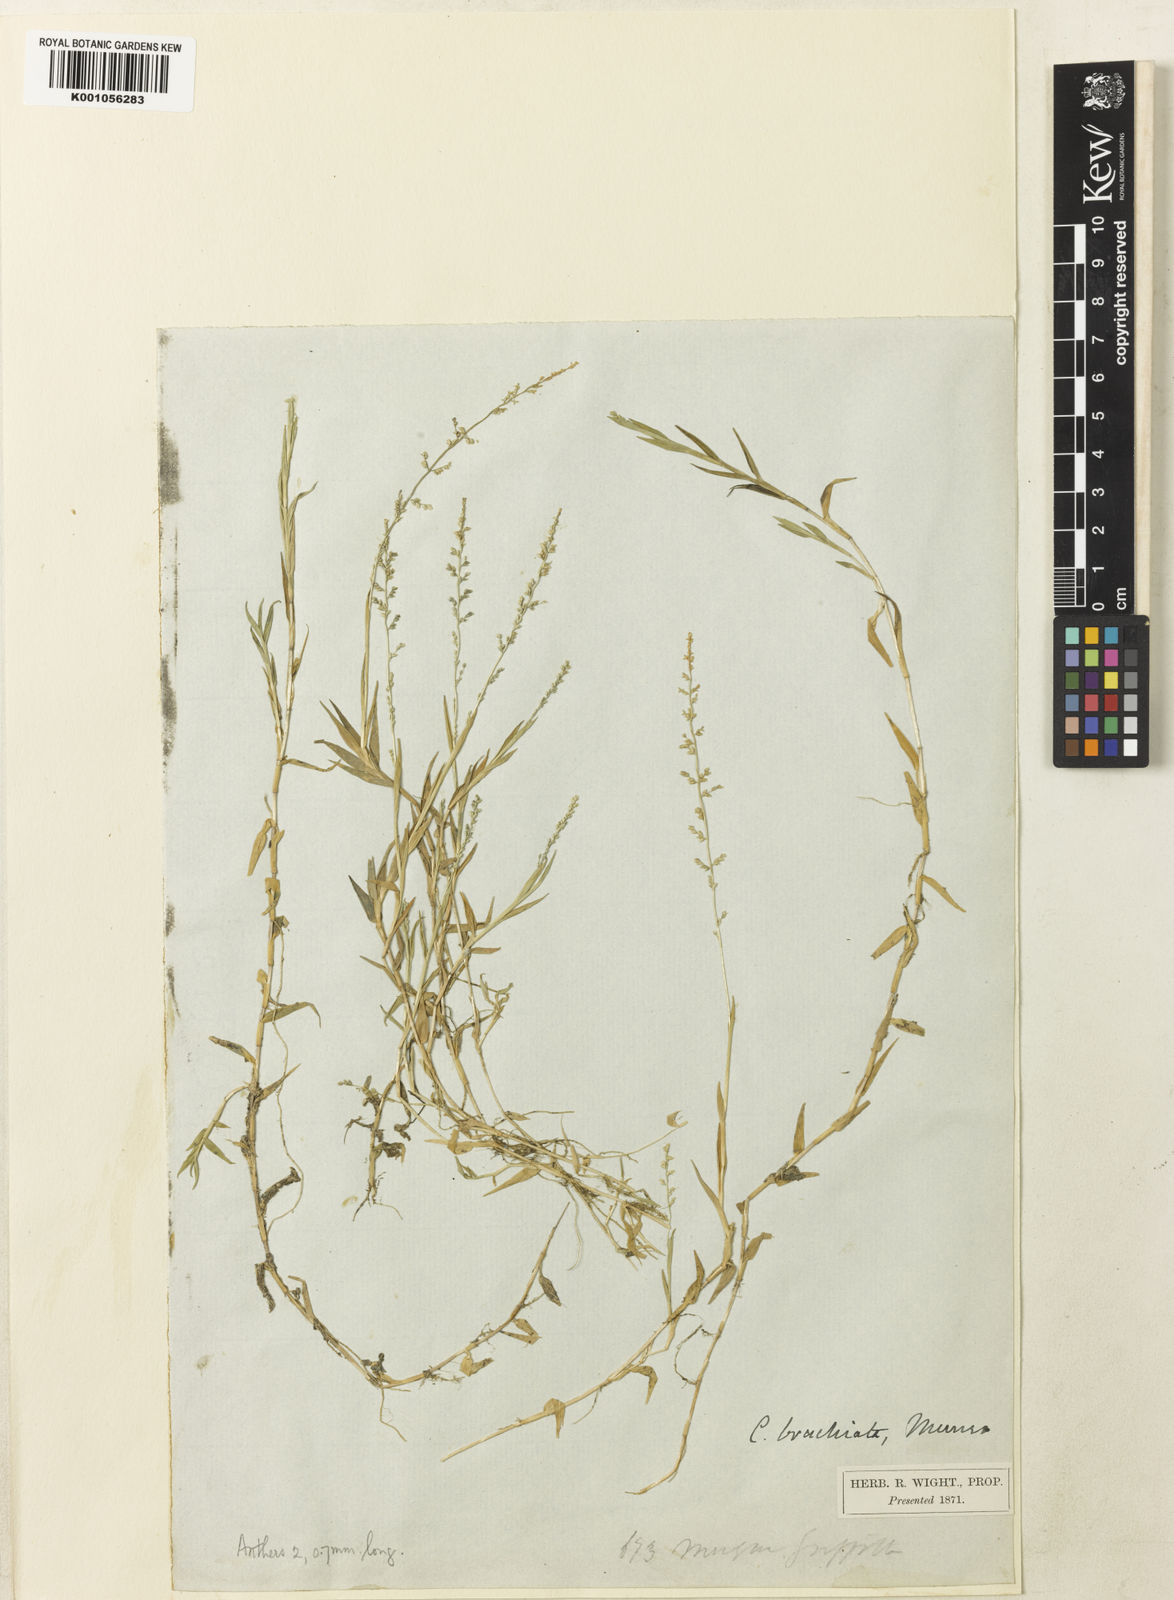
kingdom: Plantae
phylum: Tracheophyta
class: Liliopsida
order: Poales
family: Poaceae
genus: Coelachne
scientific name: Coelachne simpliciuscula
